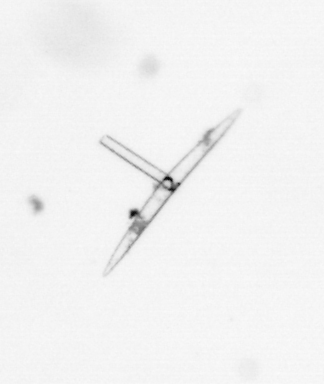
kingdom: Chromista
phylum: Ochrophyta
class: Bacillariophyceae
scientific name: Bacillariophyceae
